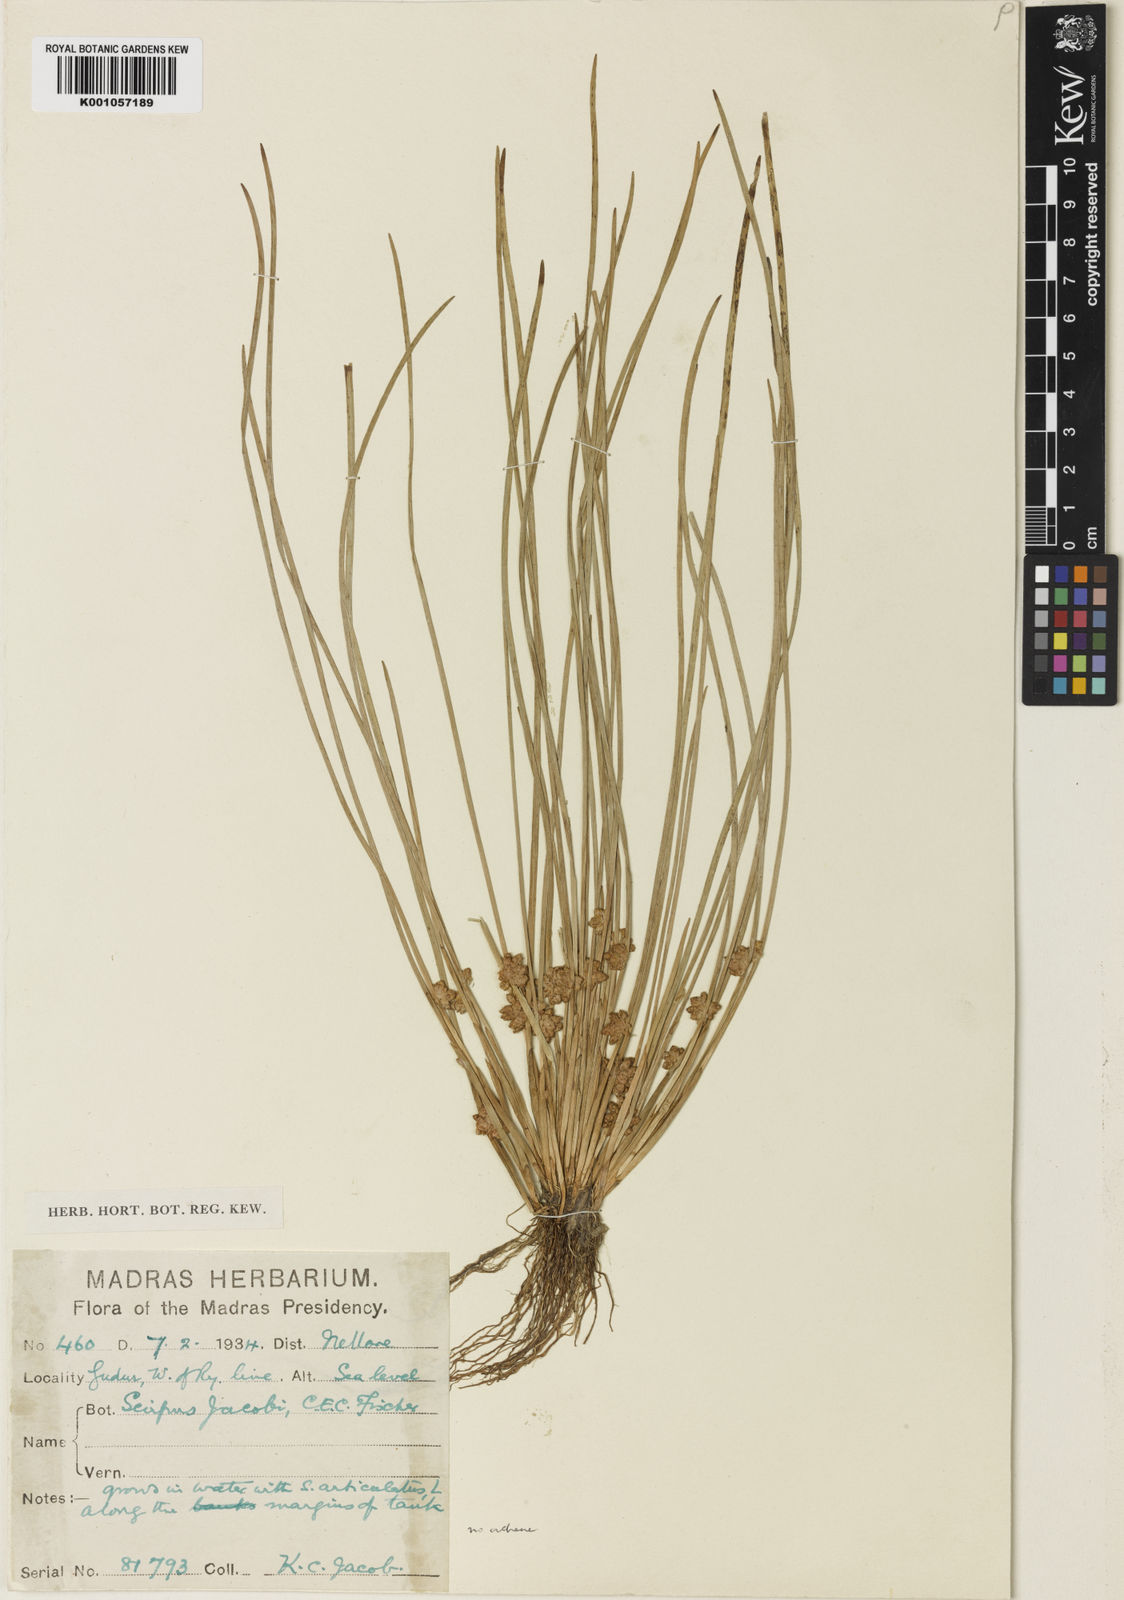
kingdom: Plantae
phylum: Tracheophyta
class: Liliopsida
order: Poales
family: Cyperaceae
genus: Schoenoplectiella
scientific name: Schoenoplectiella senegalensis
